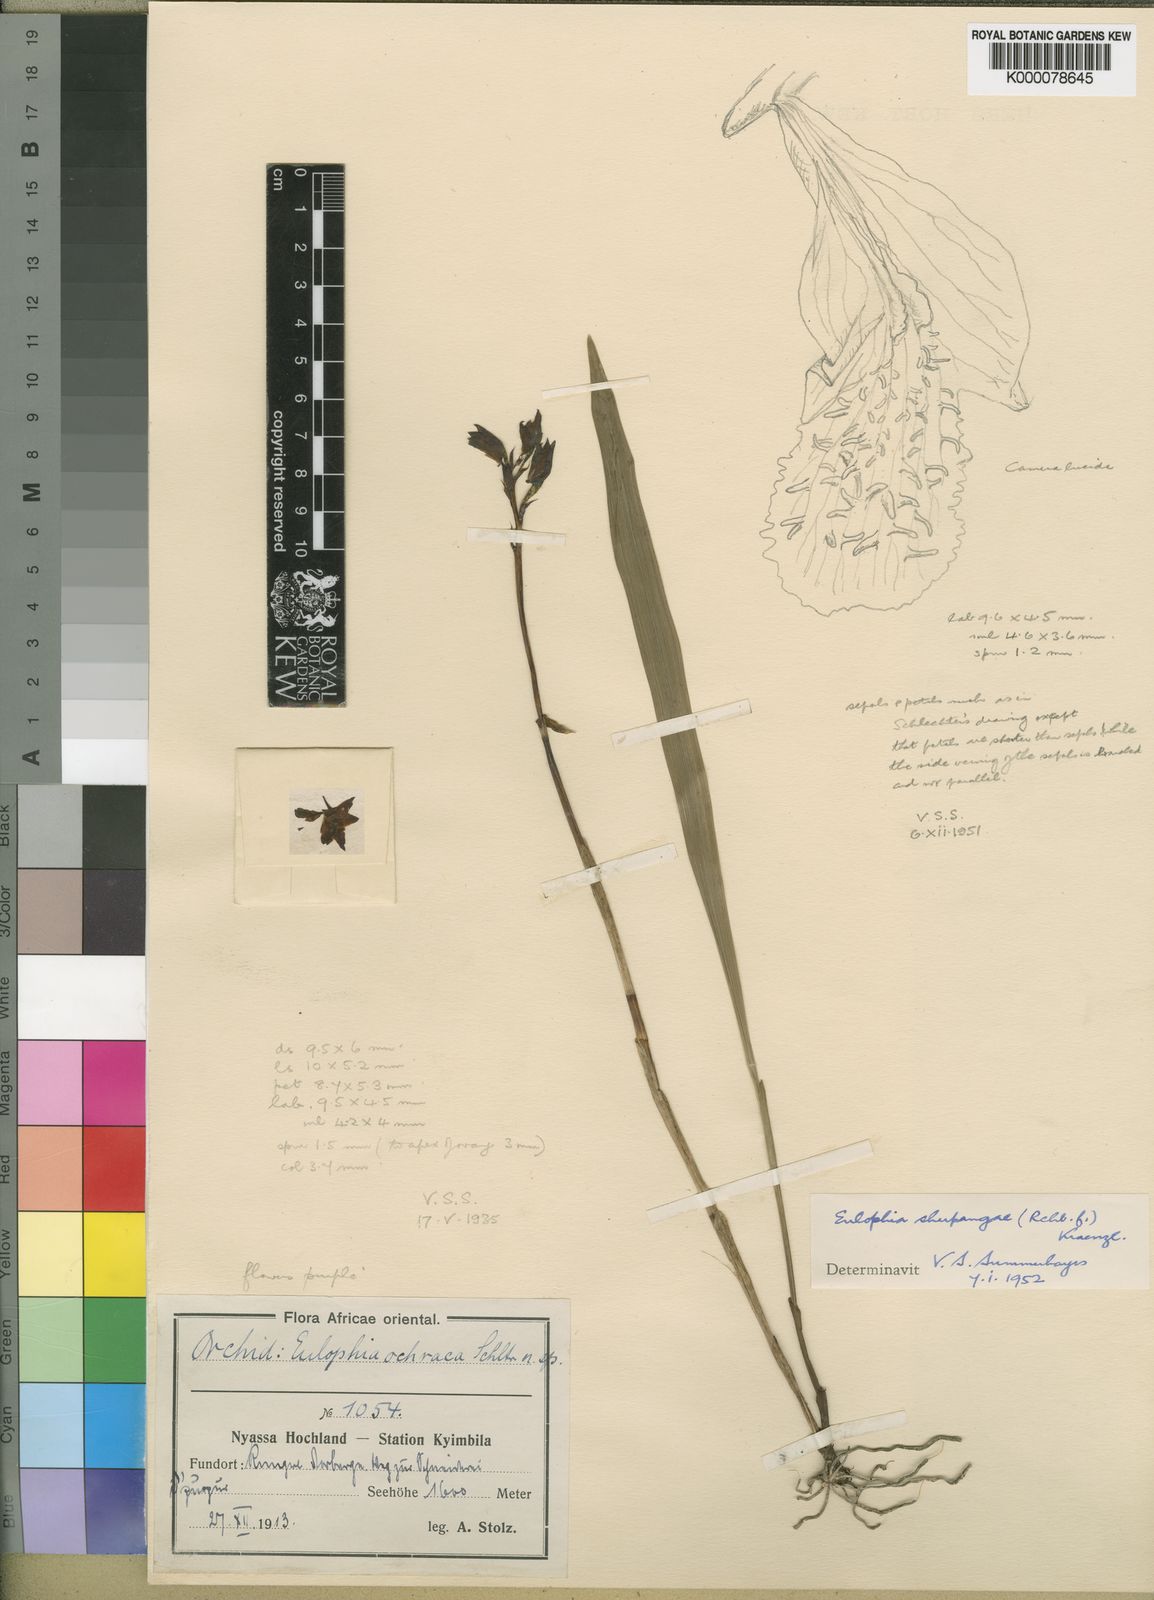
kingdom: Plantae
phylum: Tracheophyta
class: Liliopsida
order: Asparagales
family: Orchidaceae
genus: Eulophia
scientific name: Eulophia odontoglossa
